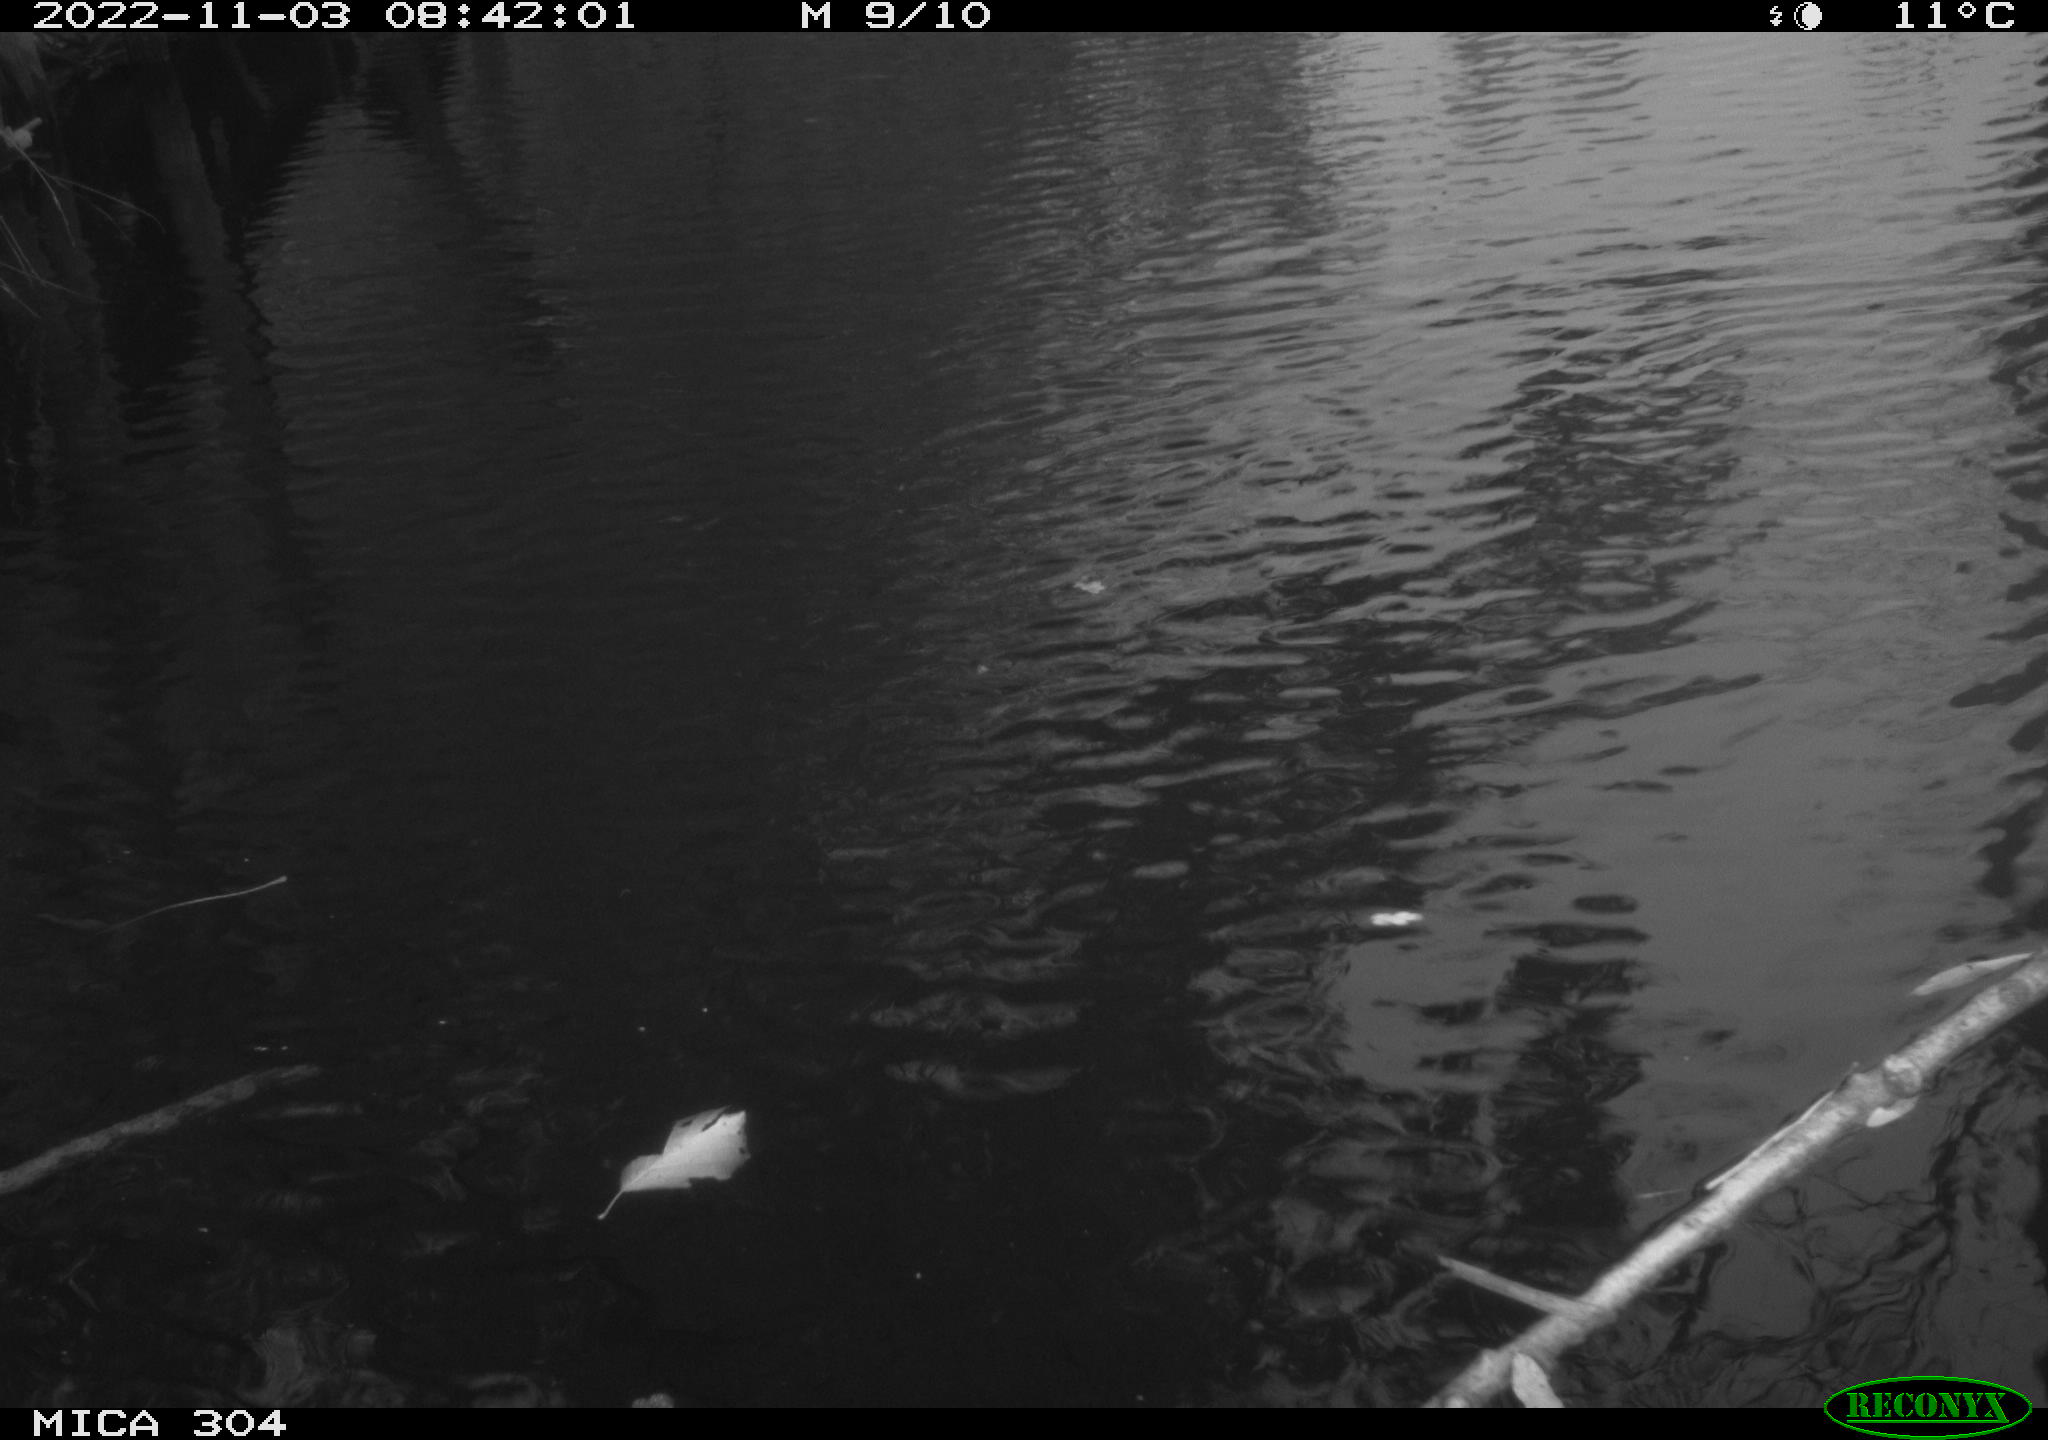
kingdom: Animalia
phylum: Chordata
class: Aves
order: Gruiformes
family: Rallidae
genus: Gallinula
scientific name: Gallinula chloropus
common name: Common moorhen
